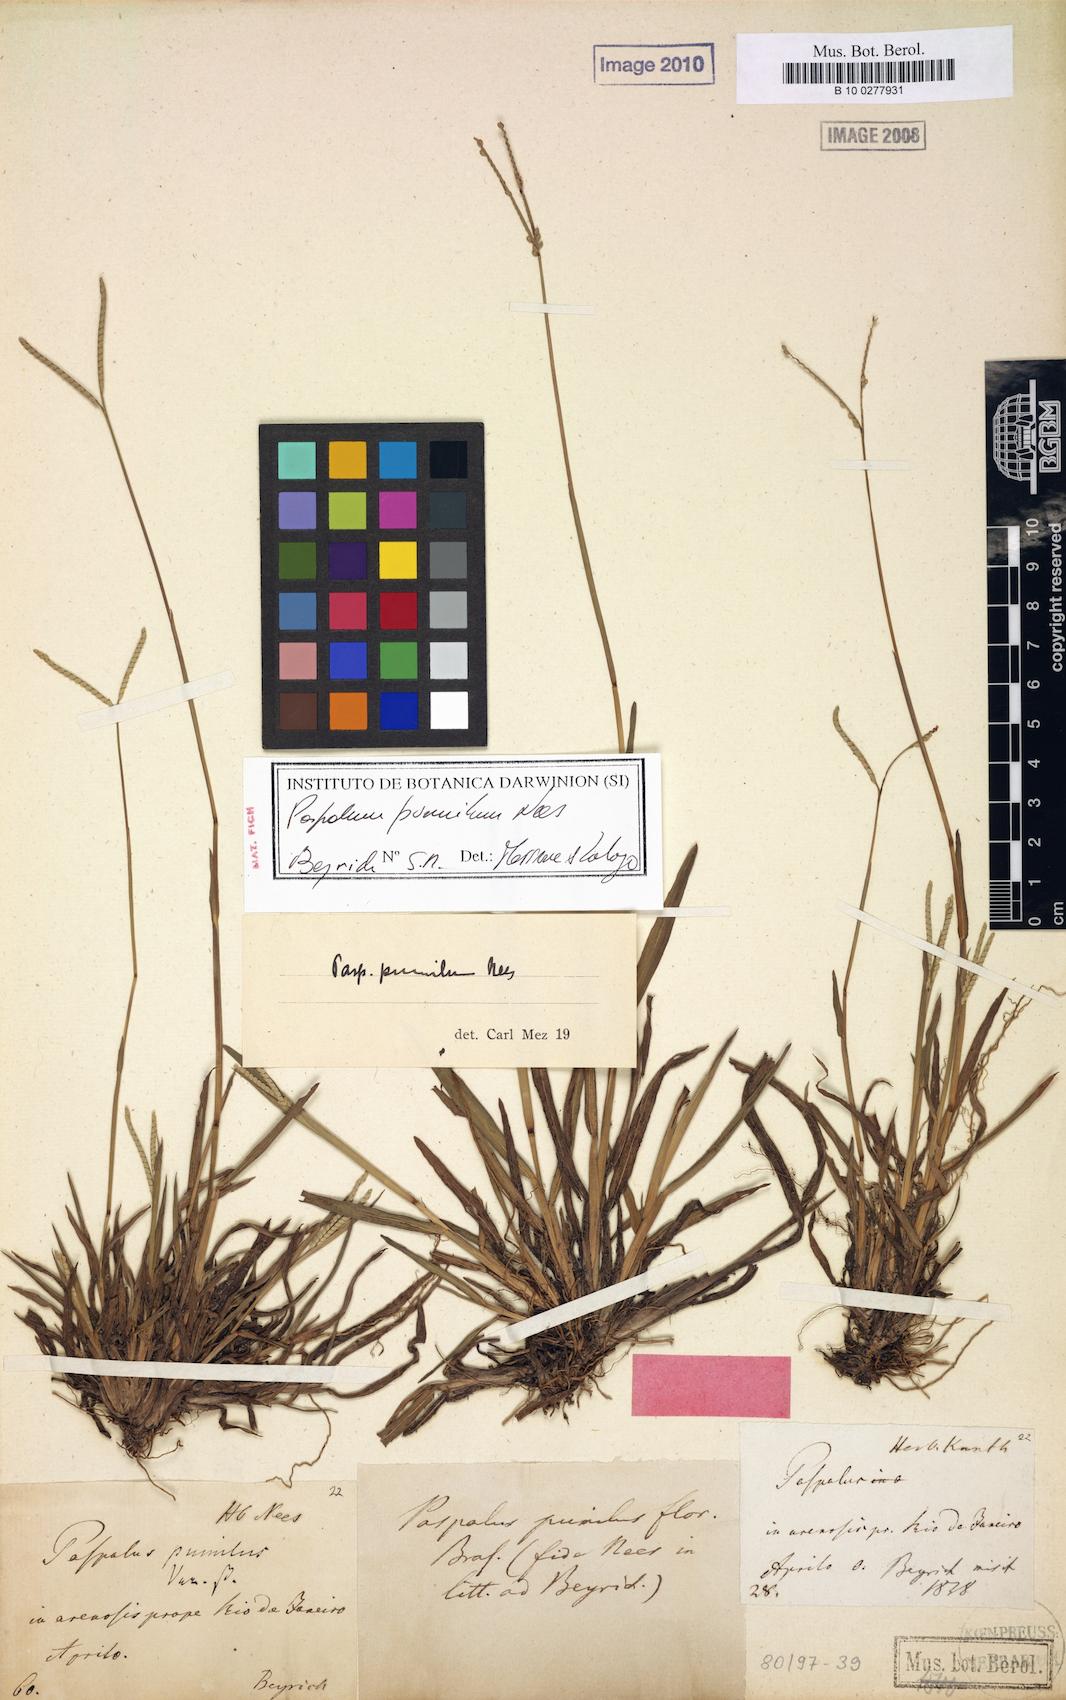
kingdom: Plantae
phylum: Tracheophyta
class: Liliopsida
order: Poales
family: Poaceae
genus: Paspalum
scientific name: Paspalum pumilum
